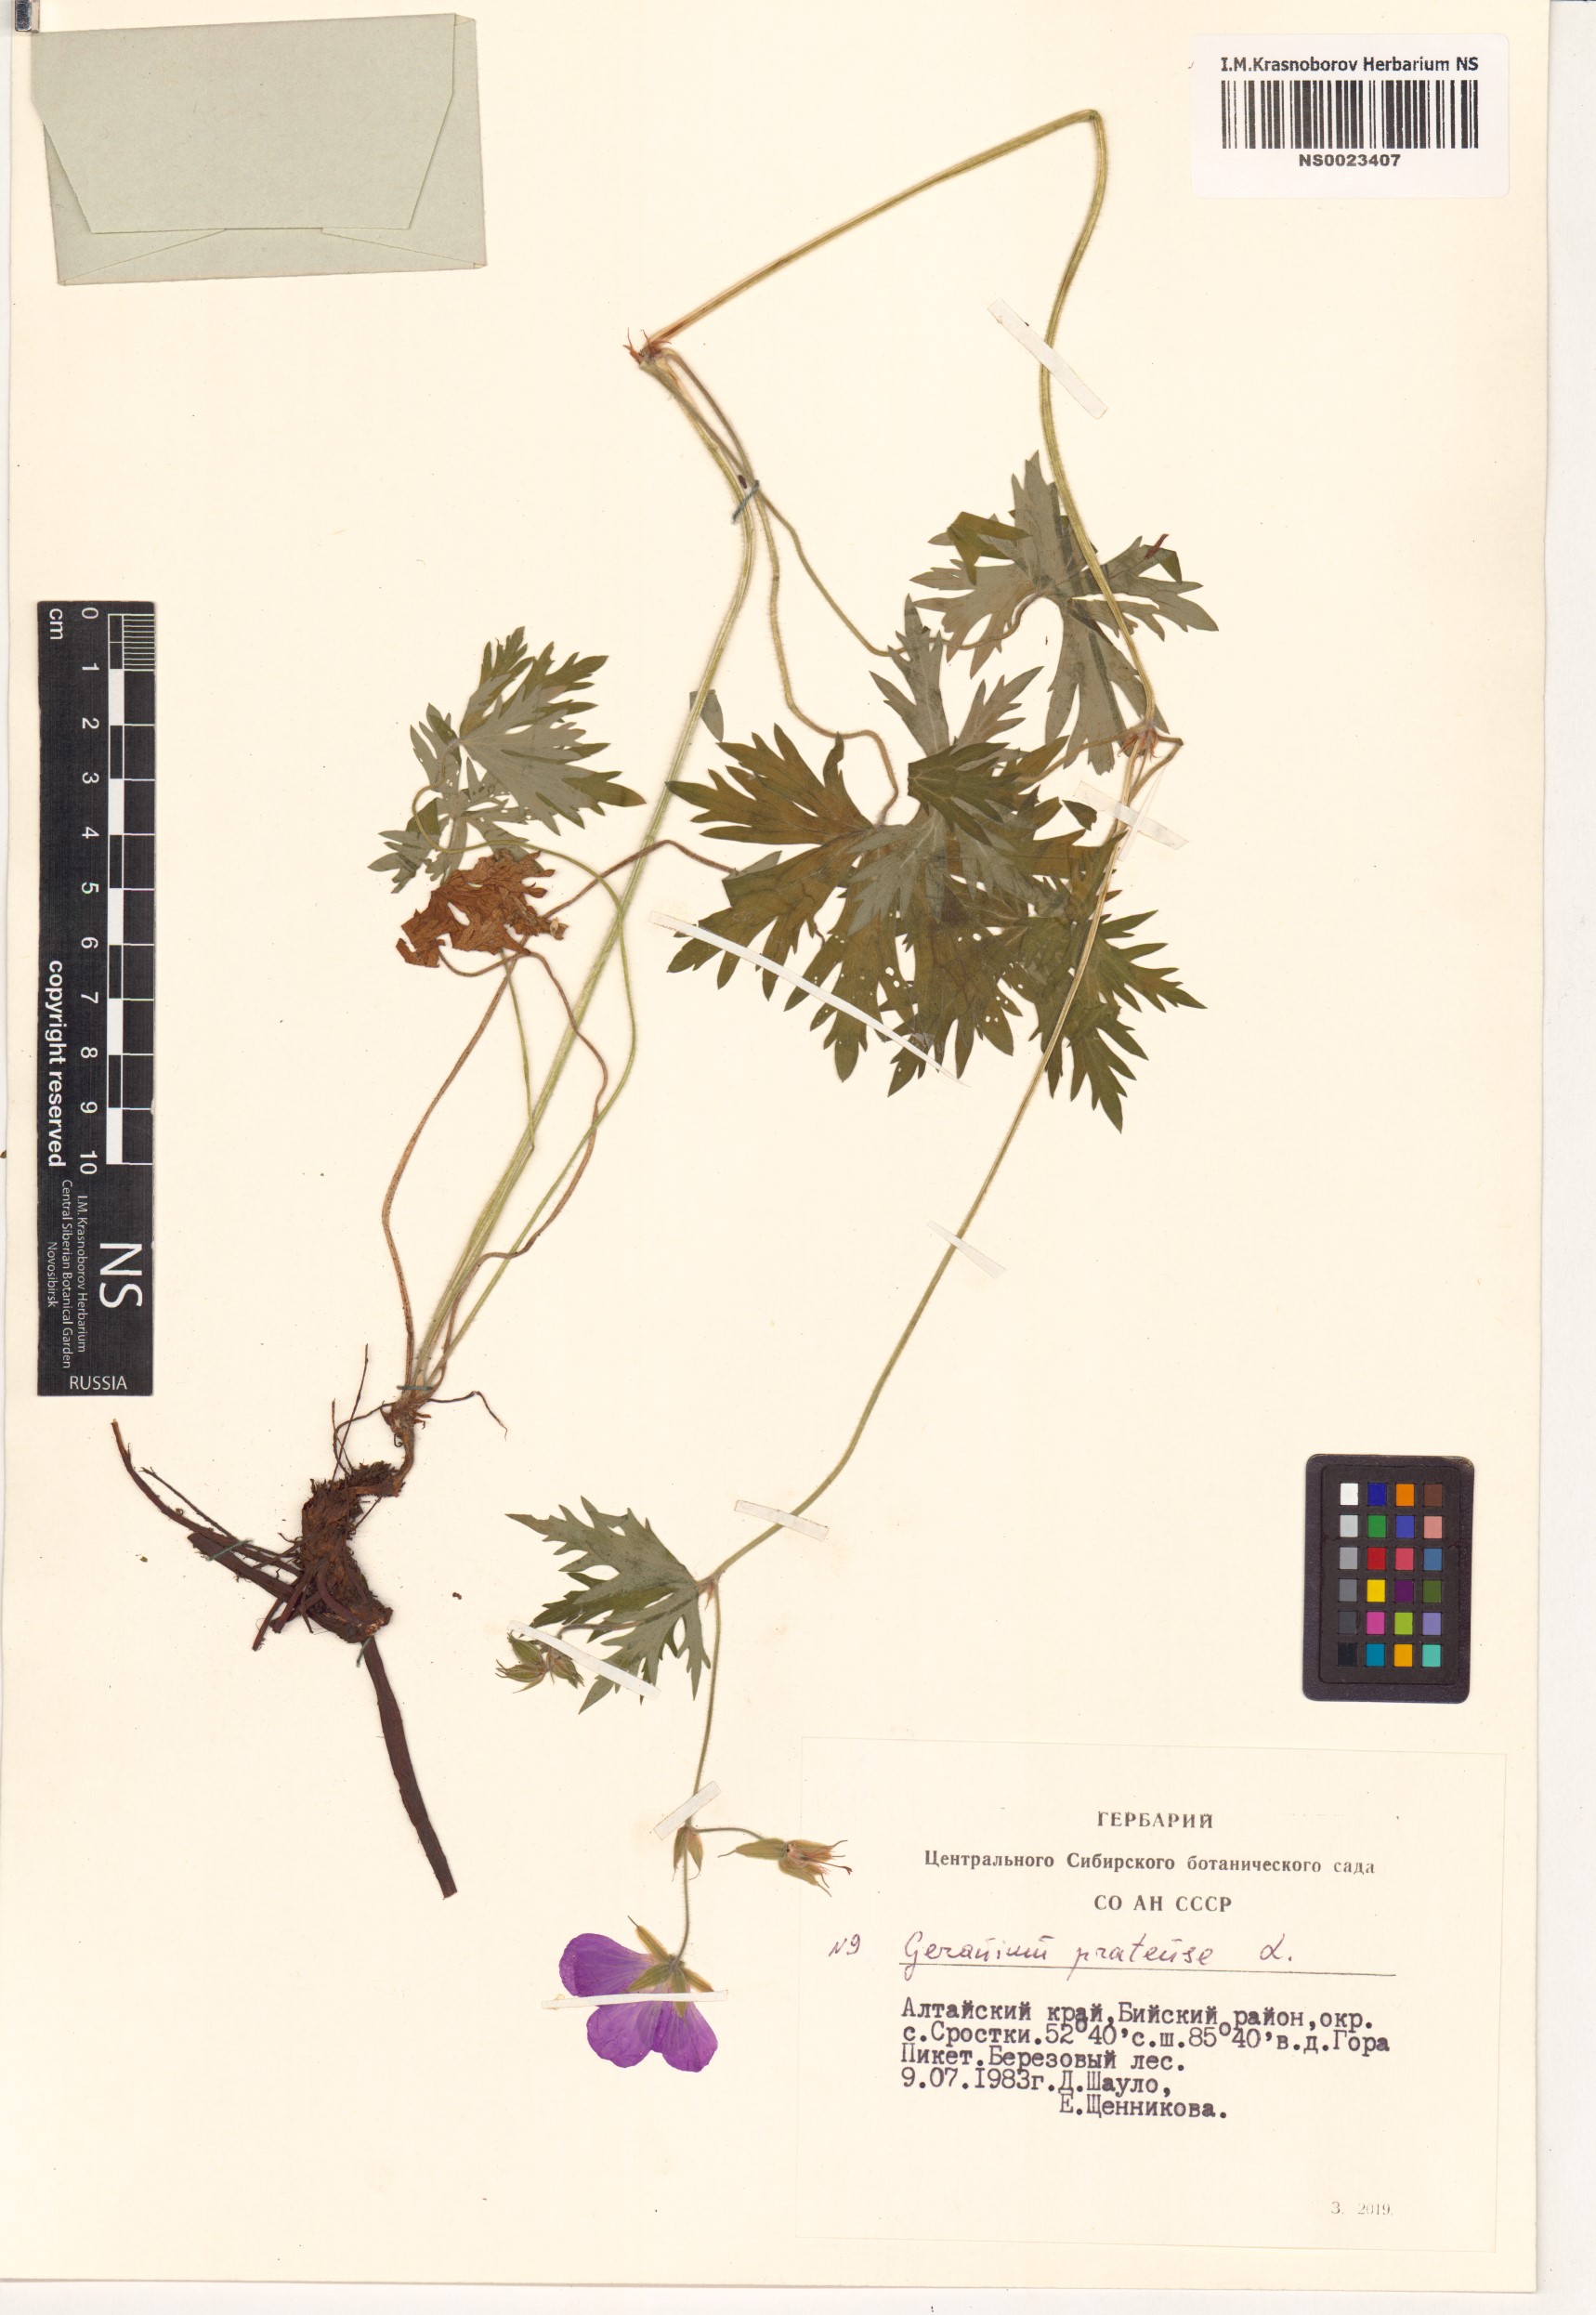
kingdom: Plantae
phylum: Tracheophyta
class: Magnoliopsida
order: Geraniales
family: Geraniaceae
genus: Geranium
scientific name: Geranium pratense
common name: Meadow crane's-bill
